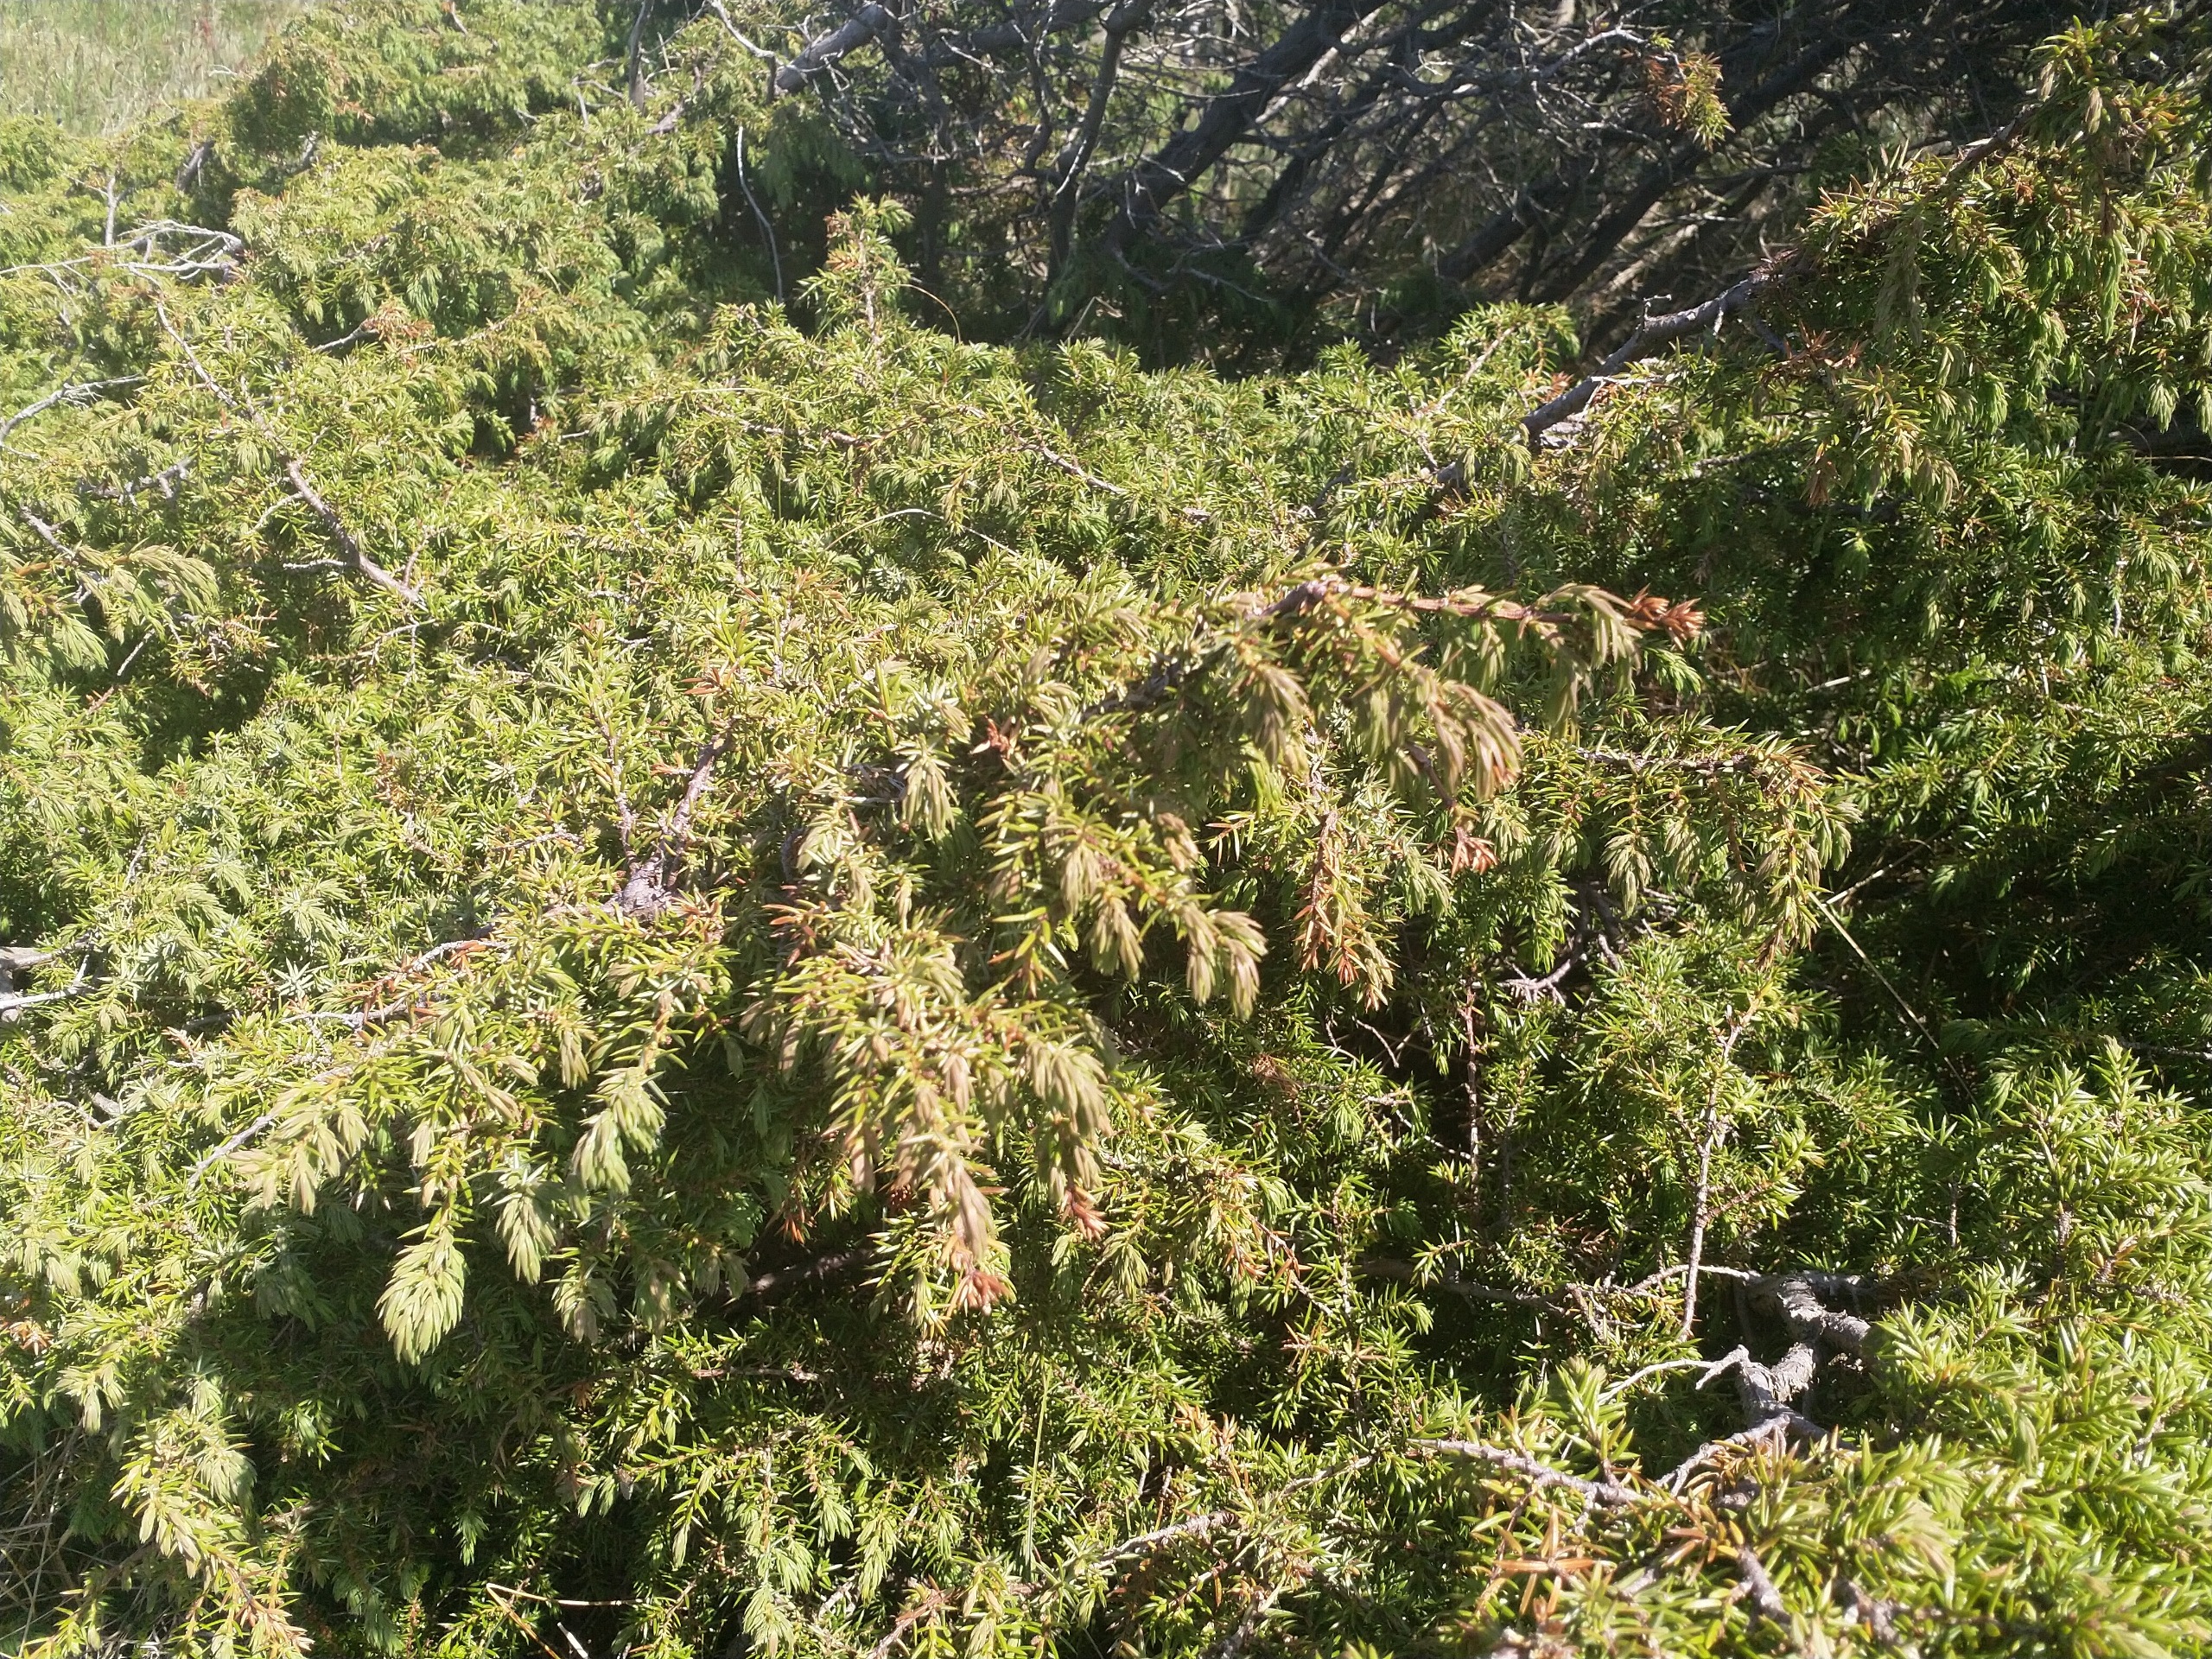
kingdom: Plantae
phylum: Tracheophyta
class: Pinopsida
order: Pinales
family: Cupressaceae
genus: Juniperus
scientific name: Juniperus communis
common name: Almindelig ene
